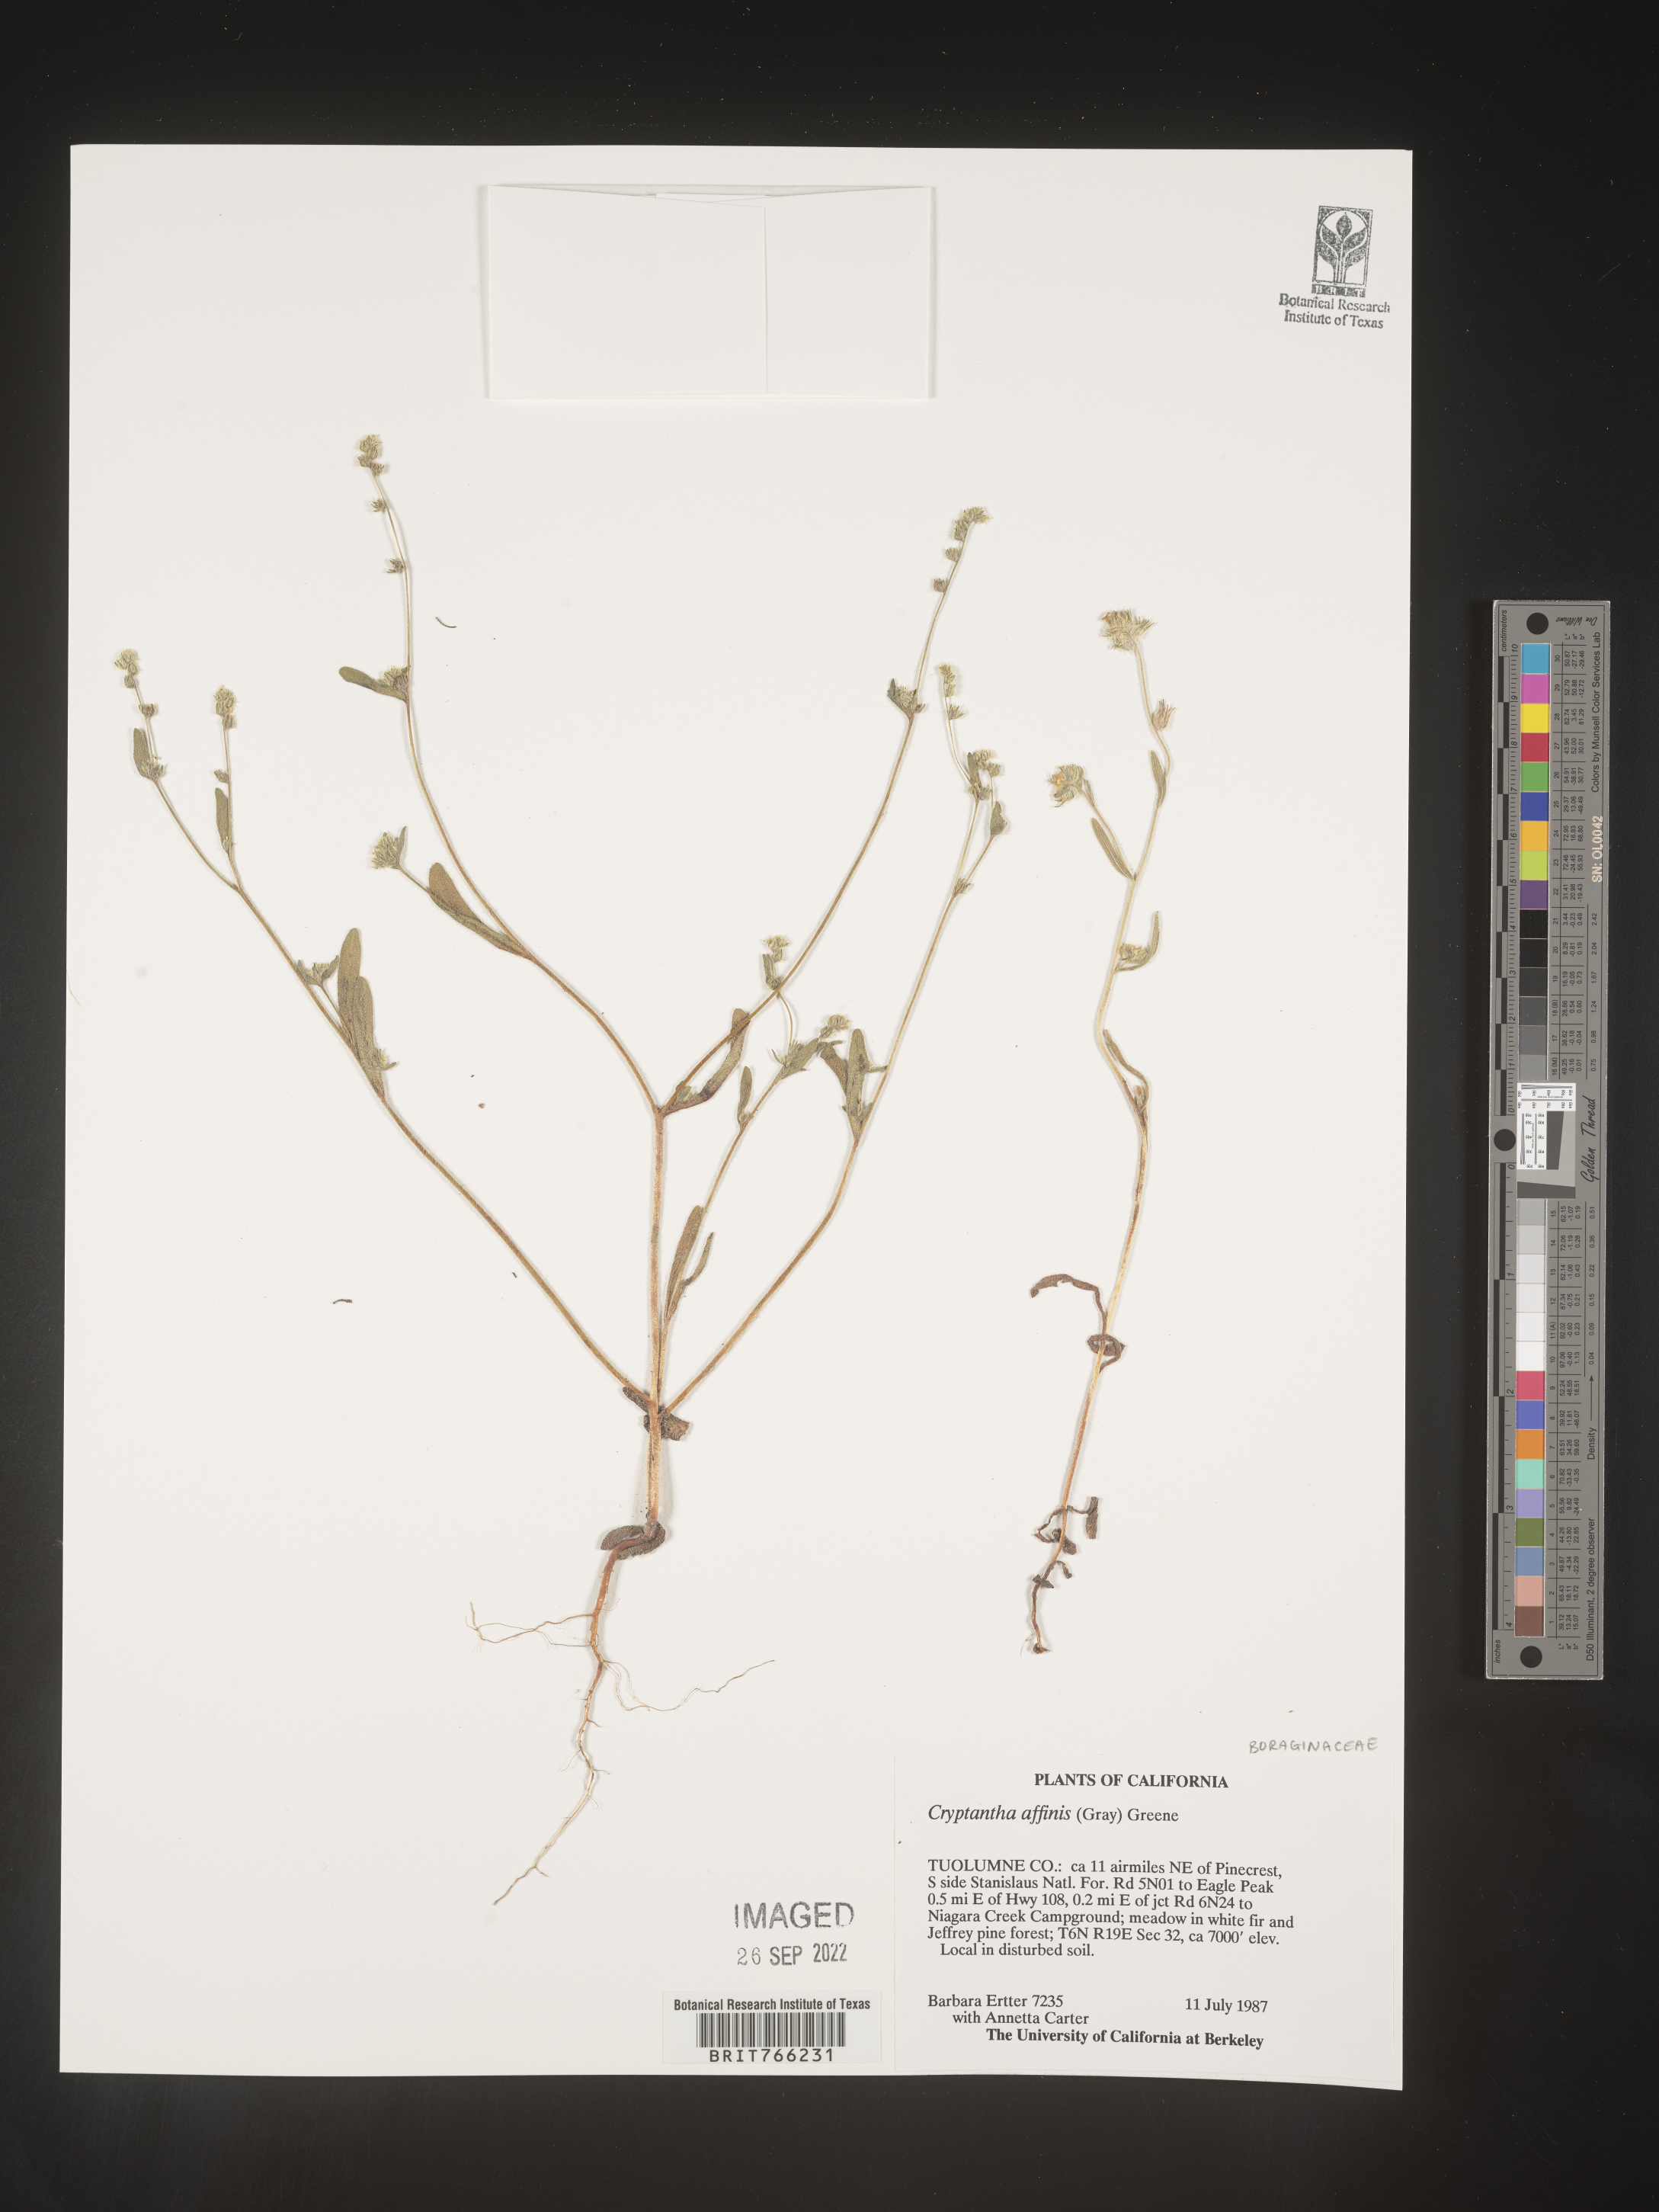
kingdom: Plantae
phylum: Tracheophyta
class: Magnoliopsida
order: Boraginales
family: Boraginaceae
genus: Cryptantha
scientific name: Cryptantha
